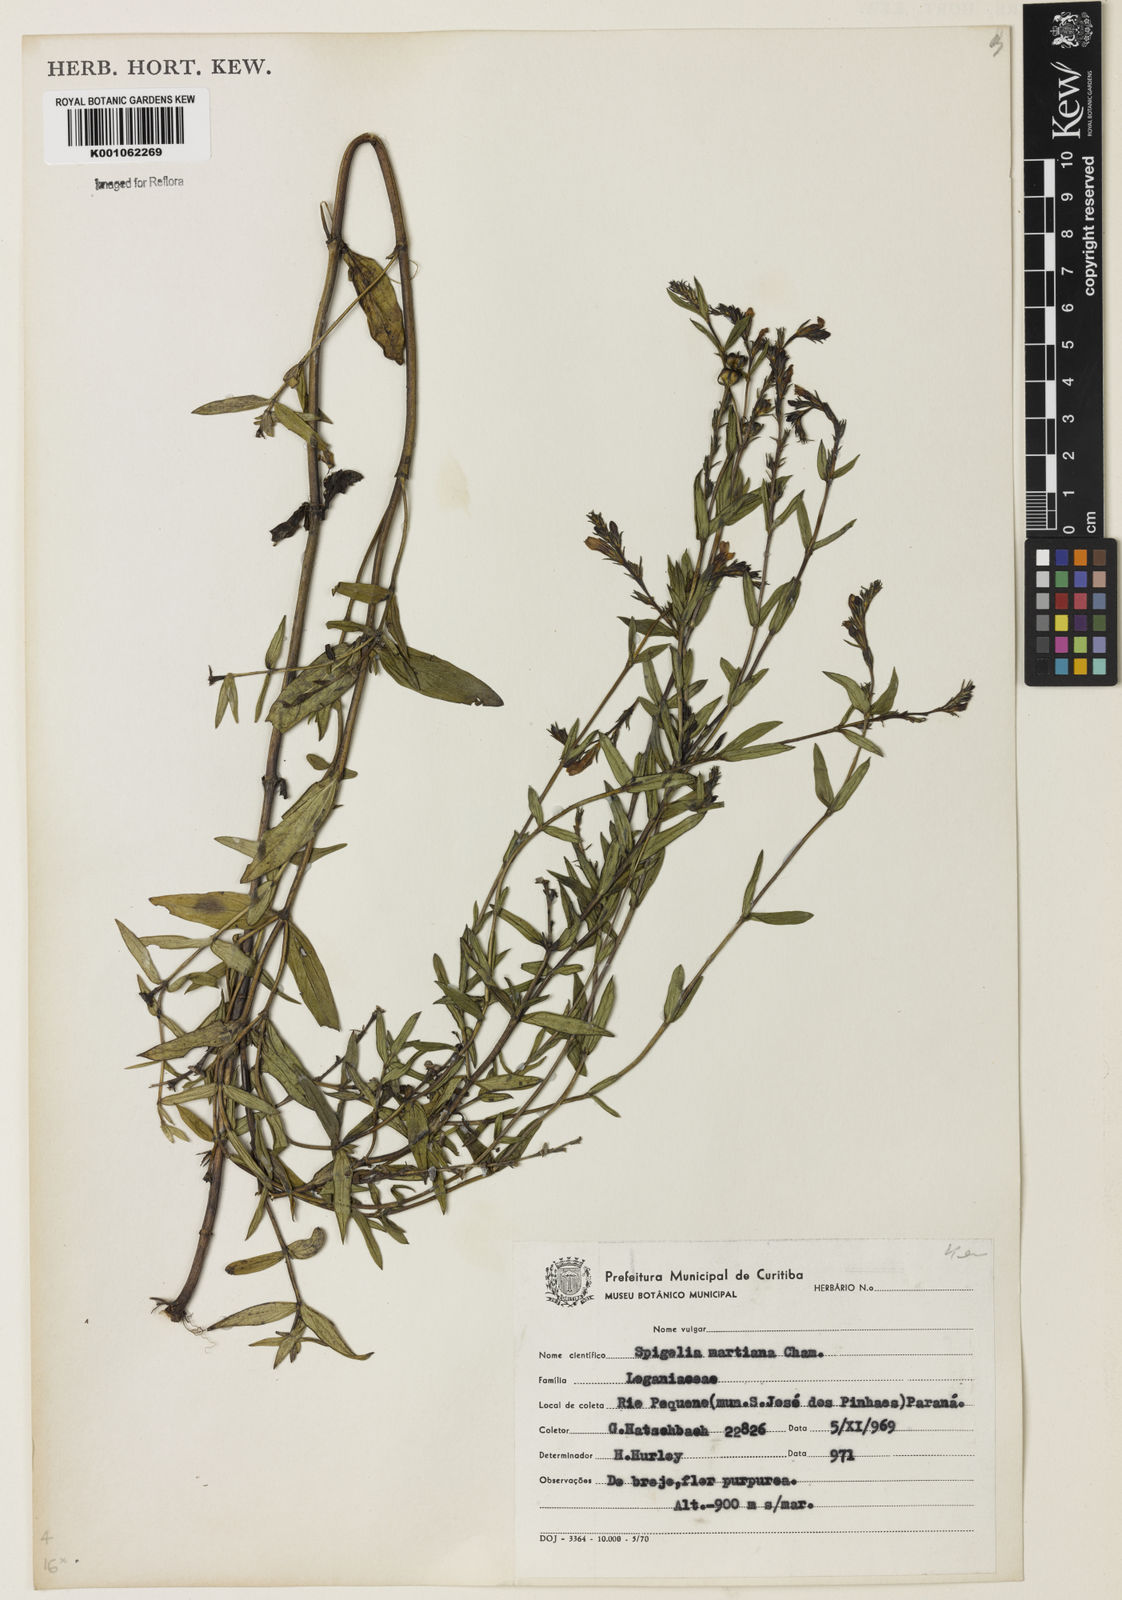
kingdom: Plantae
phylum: Tracheophyta
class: Magnoliopsida
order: Gentianales
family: Loganiaceae
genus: Spigelia
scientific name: Spigelia martiana
